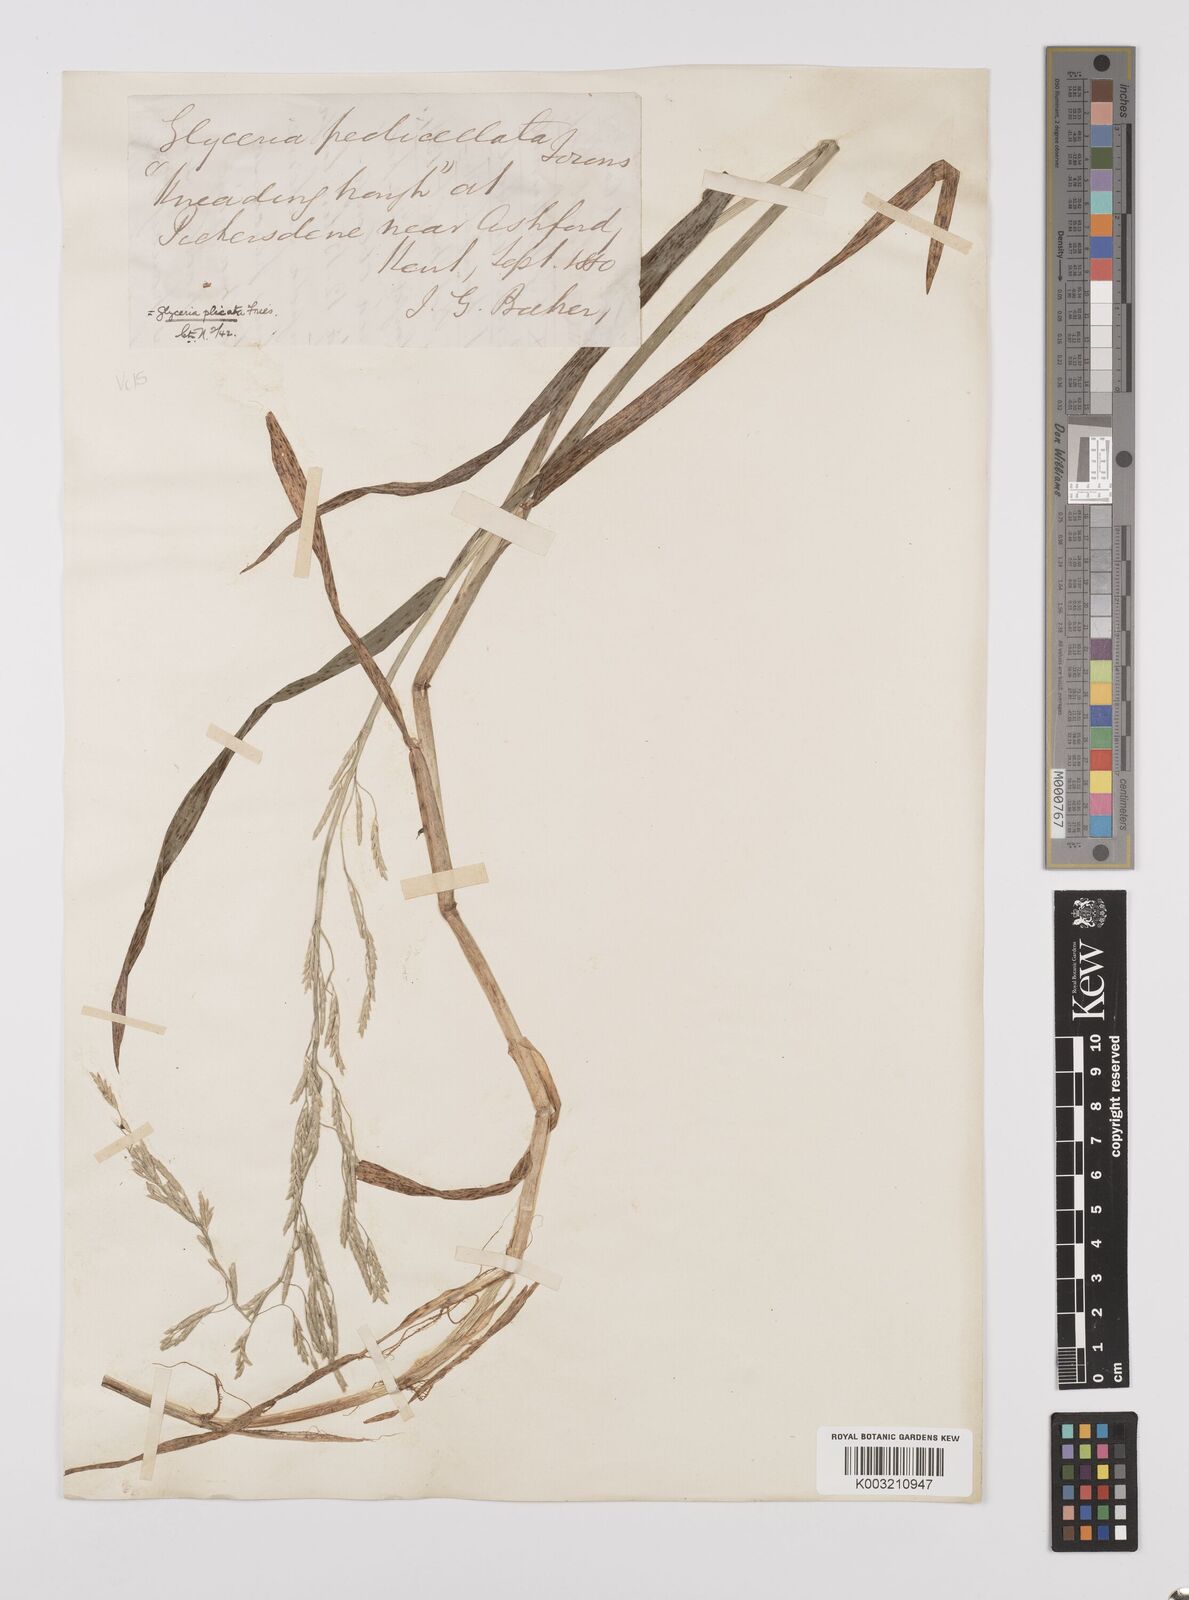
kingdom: Plantae
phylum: Tracheophyta
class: Liliopsida
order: Poales
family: Poaceae
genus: Glyceria
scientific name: Glyceria notata
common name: Plicate sweet-grass
